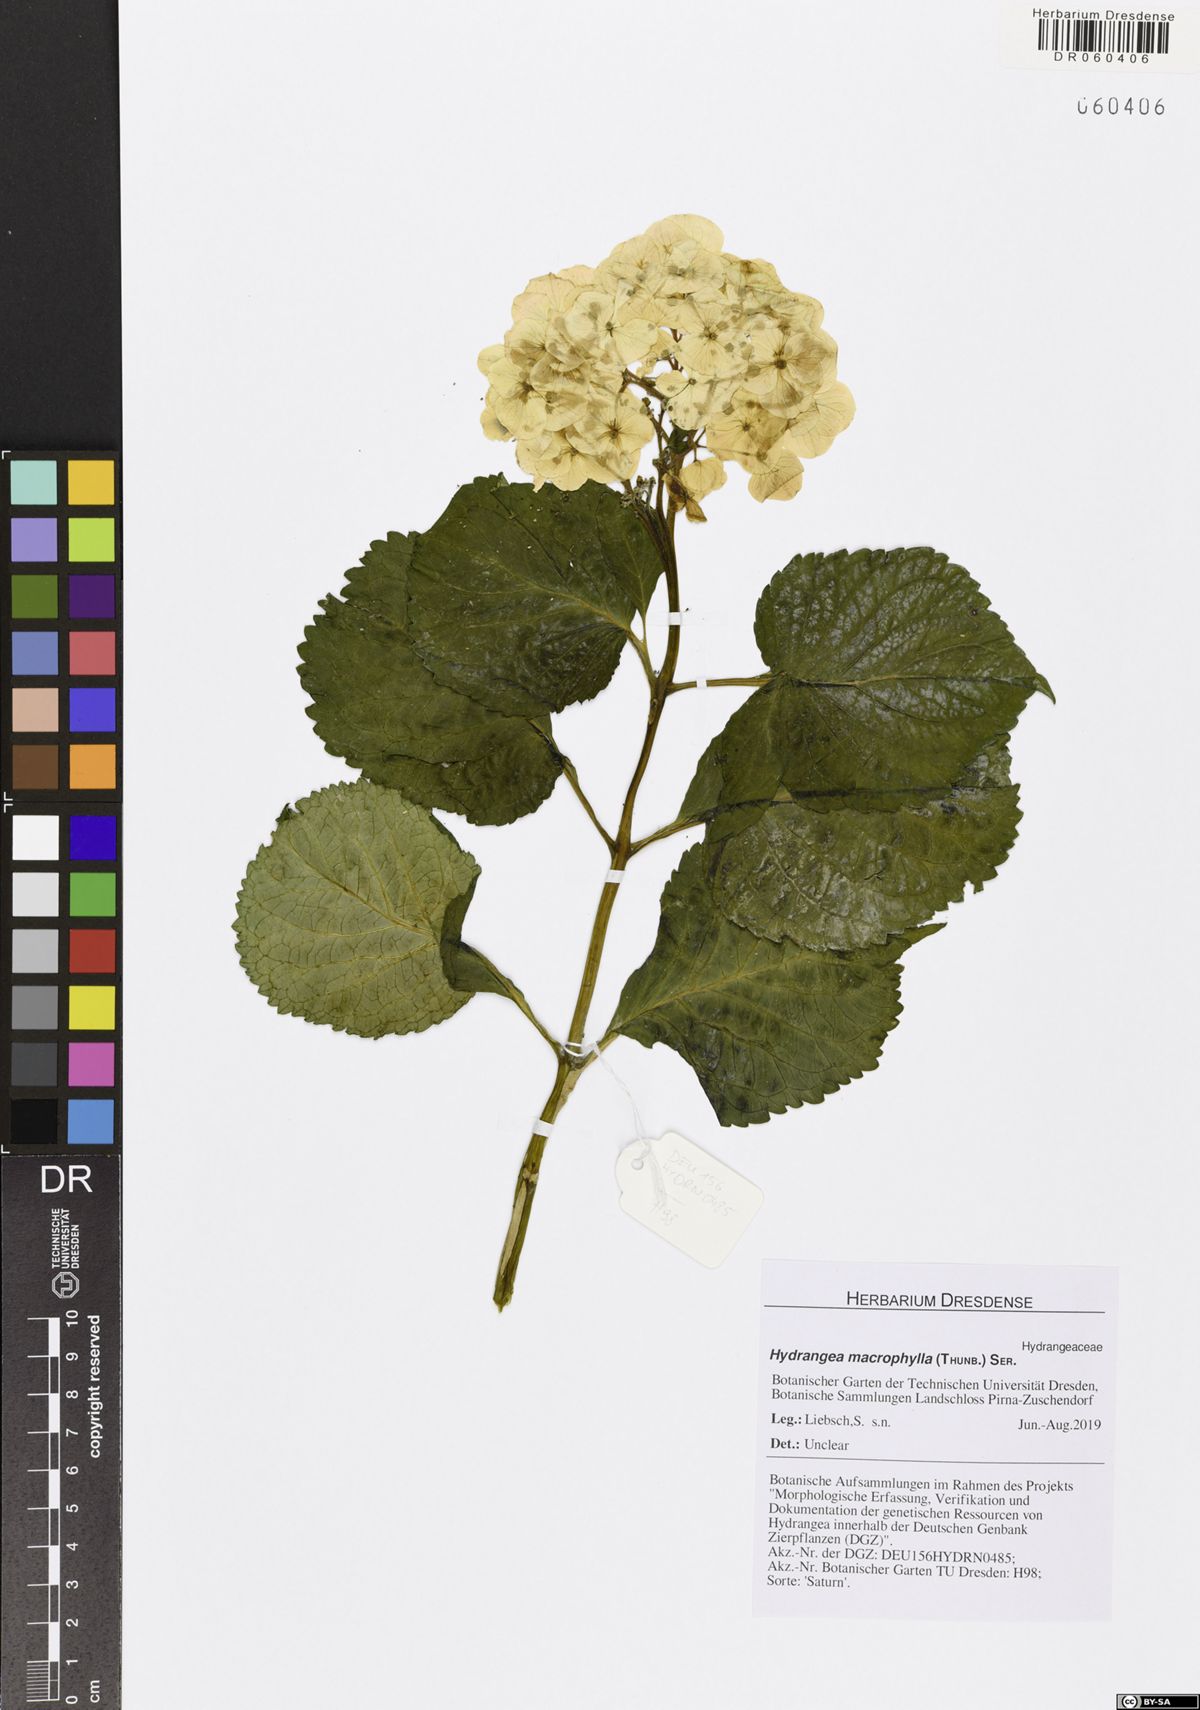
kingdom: Plantae
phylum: Tracheophyta
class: Magnoliopsida
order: Cornales
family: Hydrangeaceae
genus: Hydrangea
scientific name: Hydrangea macrophylla
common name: Hydrangea
